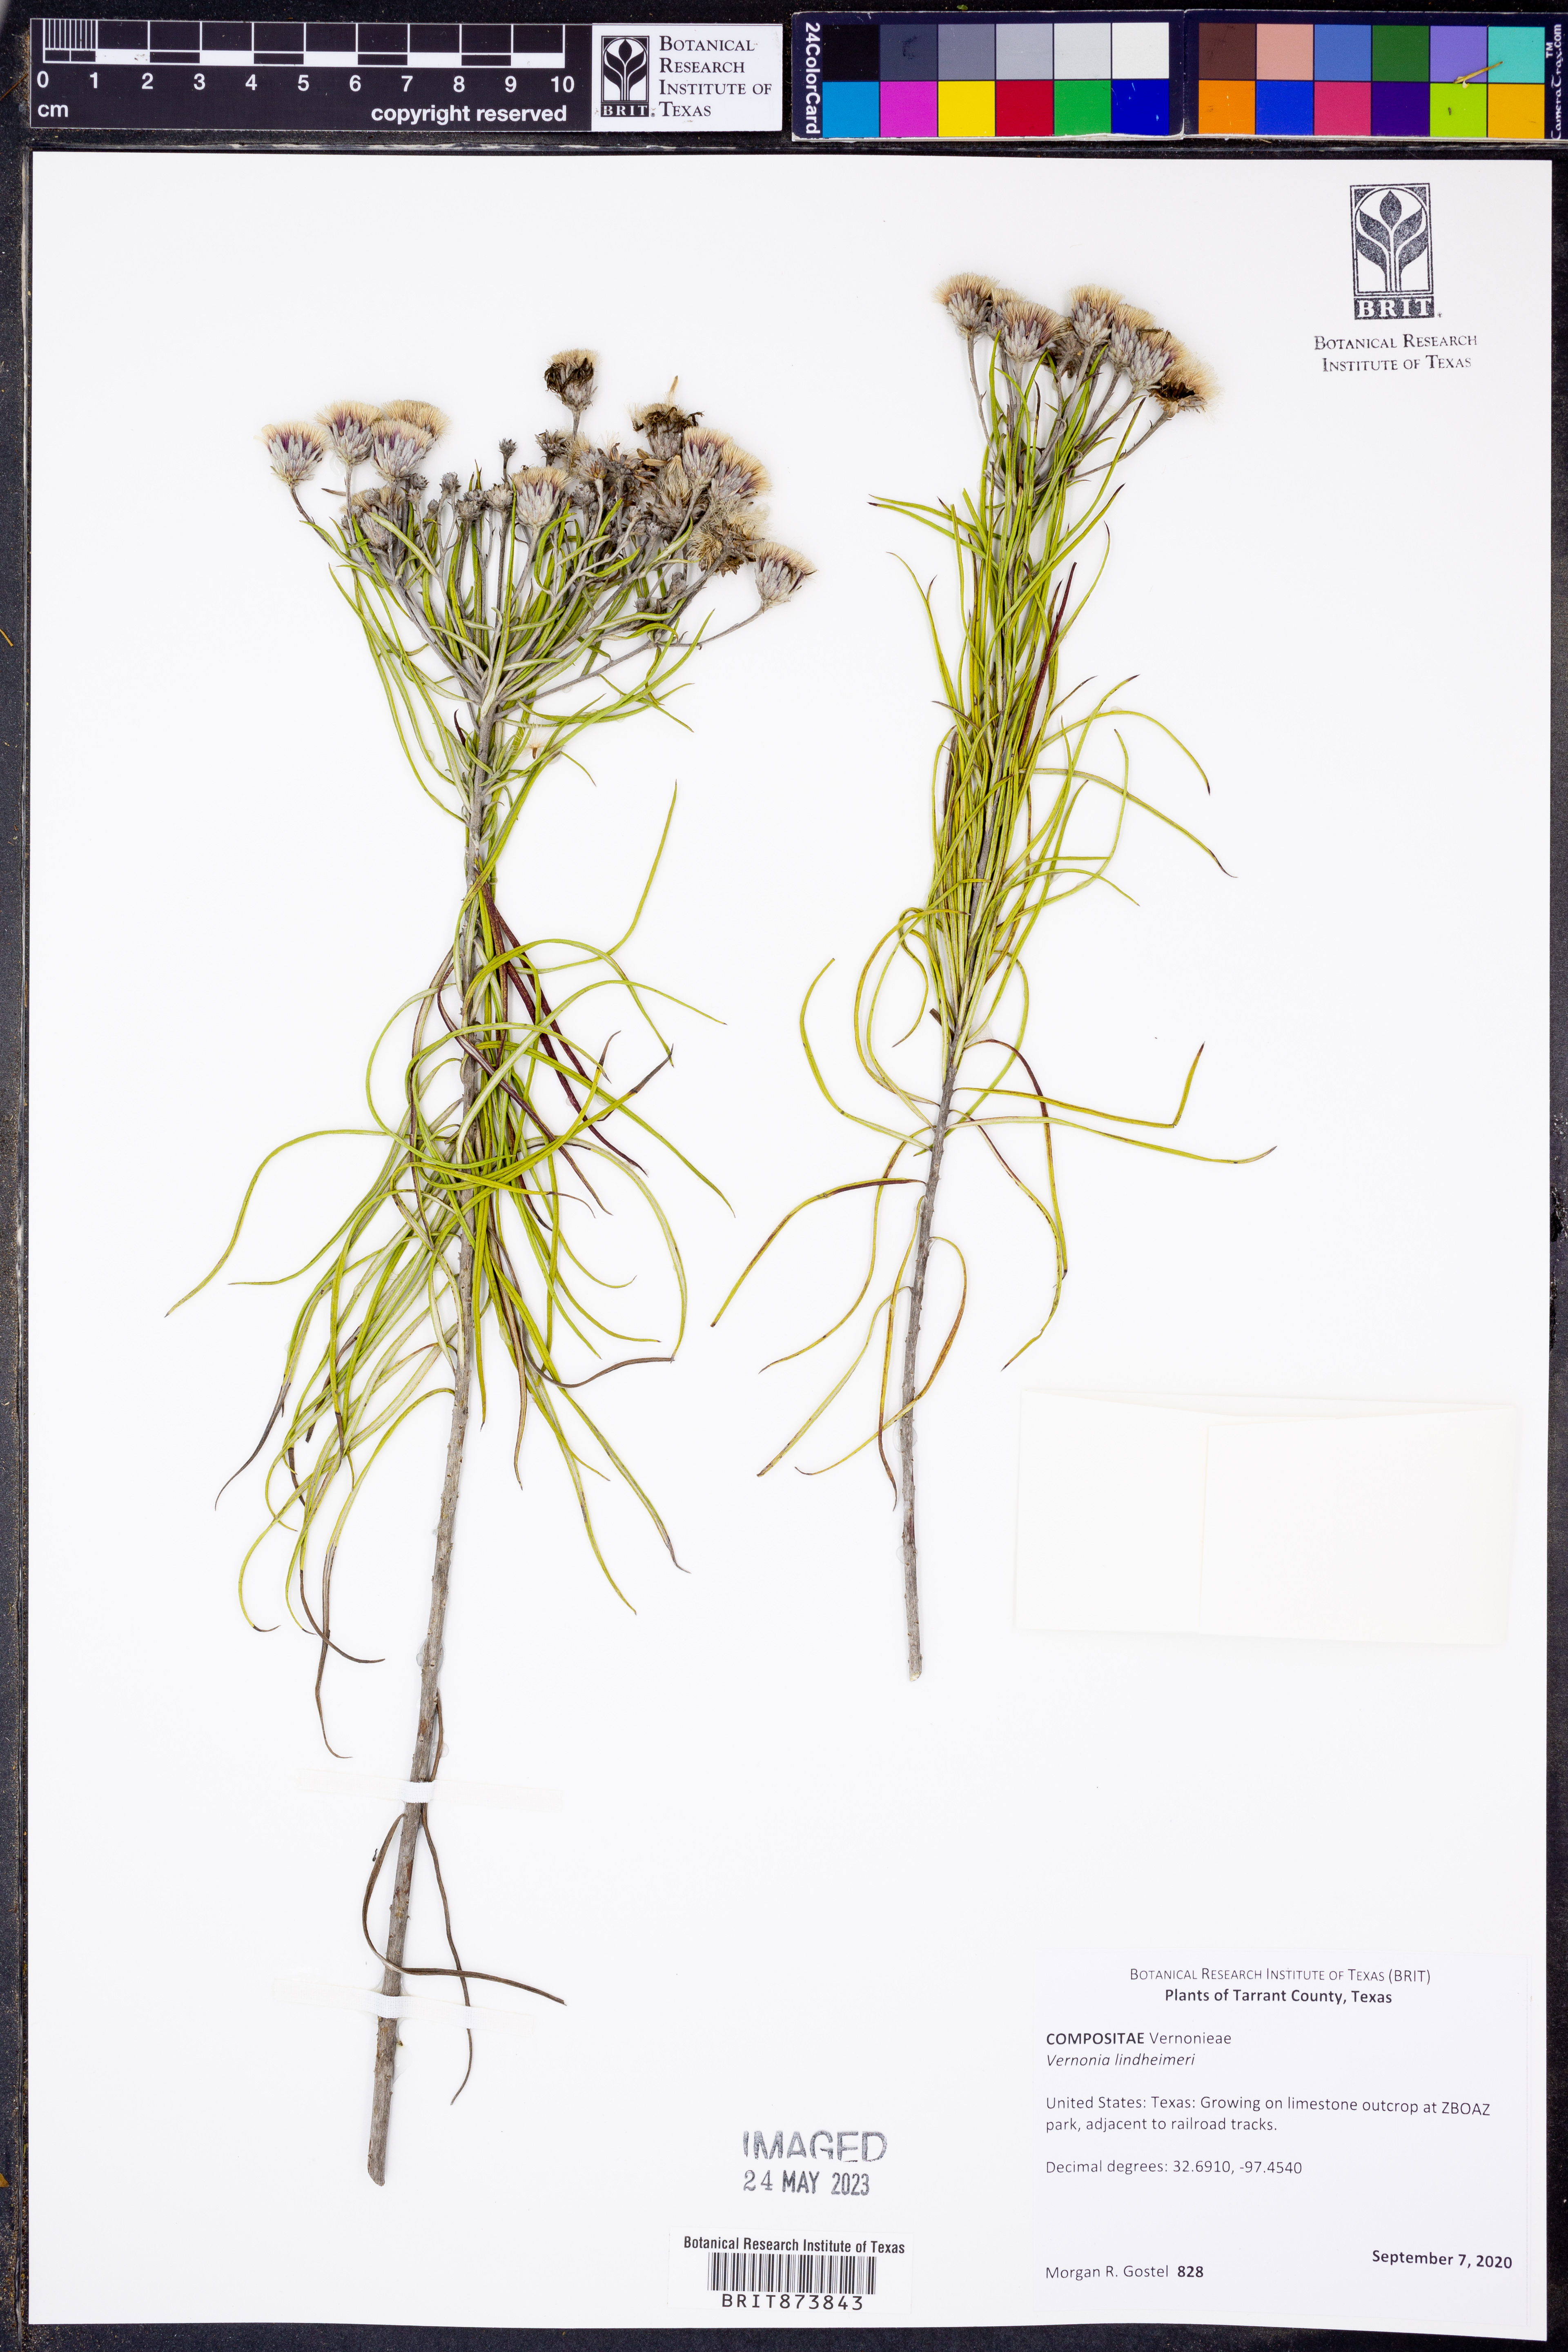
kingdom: Plantae
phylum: Tracheophyta
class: Magnoliopsida
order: Asterales
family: Asteraceae
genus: Vernonia
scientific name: Vernonia lindheimeri
